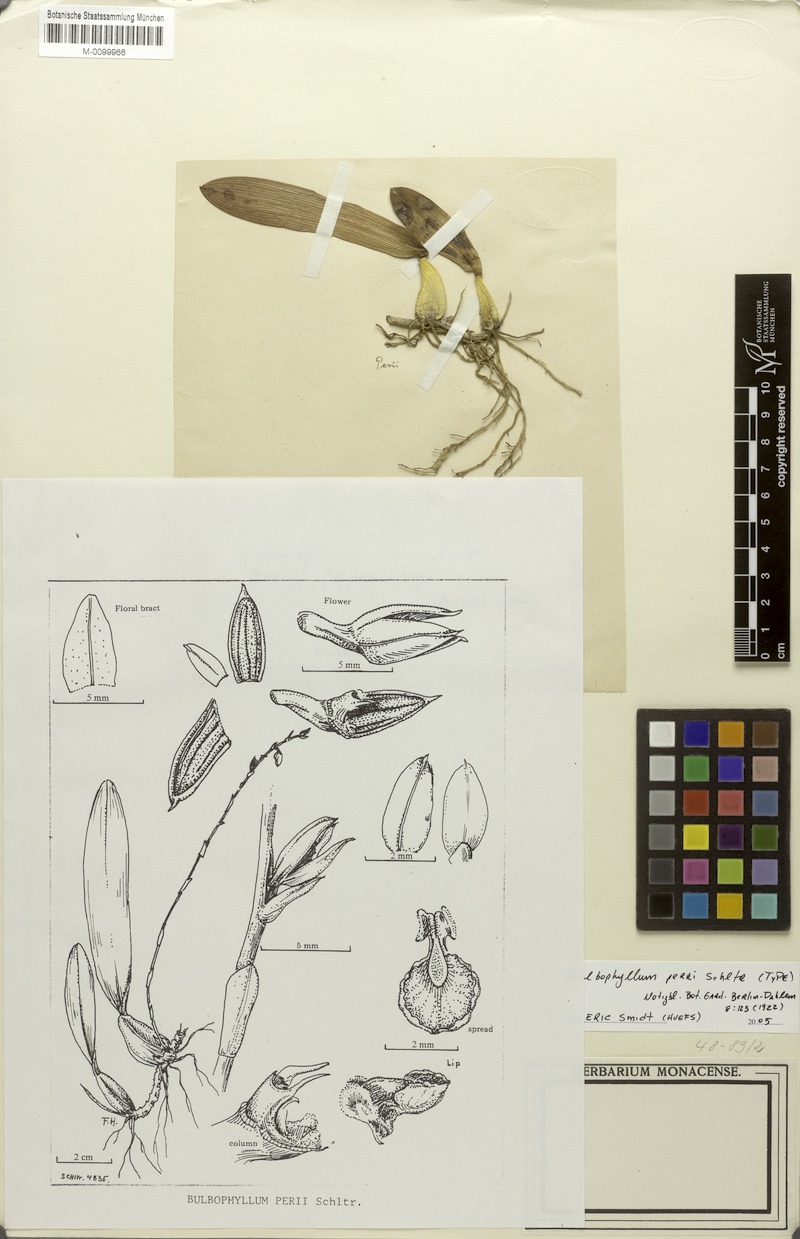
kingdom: Plantae
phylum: Tracheophyta
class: Liliopsida
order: Asparagales
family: Orchidaceae
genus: Bulbophyllum
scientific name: Bulbophyllum perii
